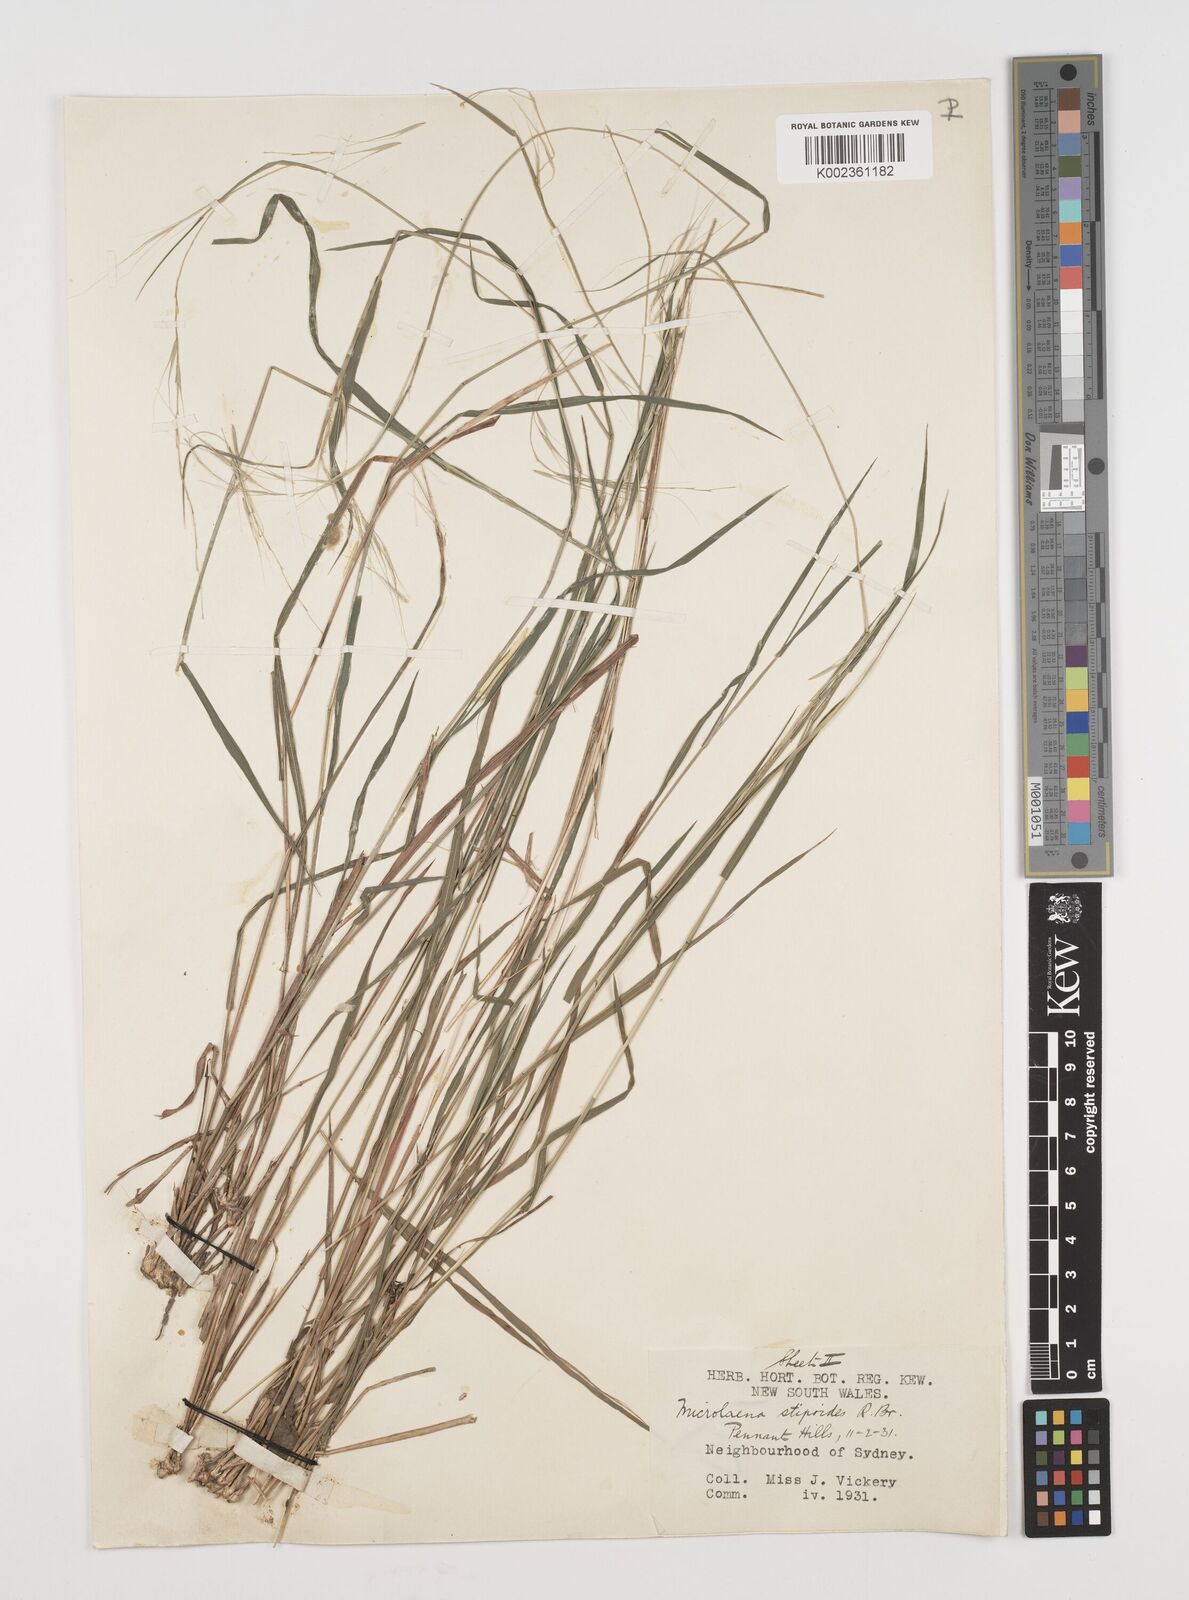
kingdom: Plantae
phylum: Tracheophyta
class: Liliopsida
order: Poales
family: Poaceae
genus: Microlaena
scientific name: Microlaena stipoides
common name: Meadow ricegrass
